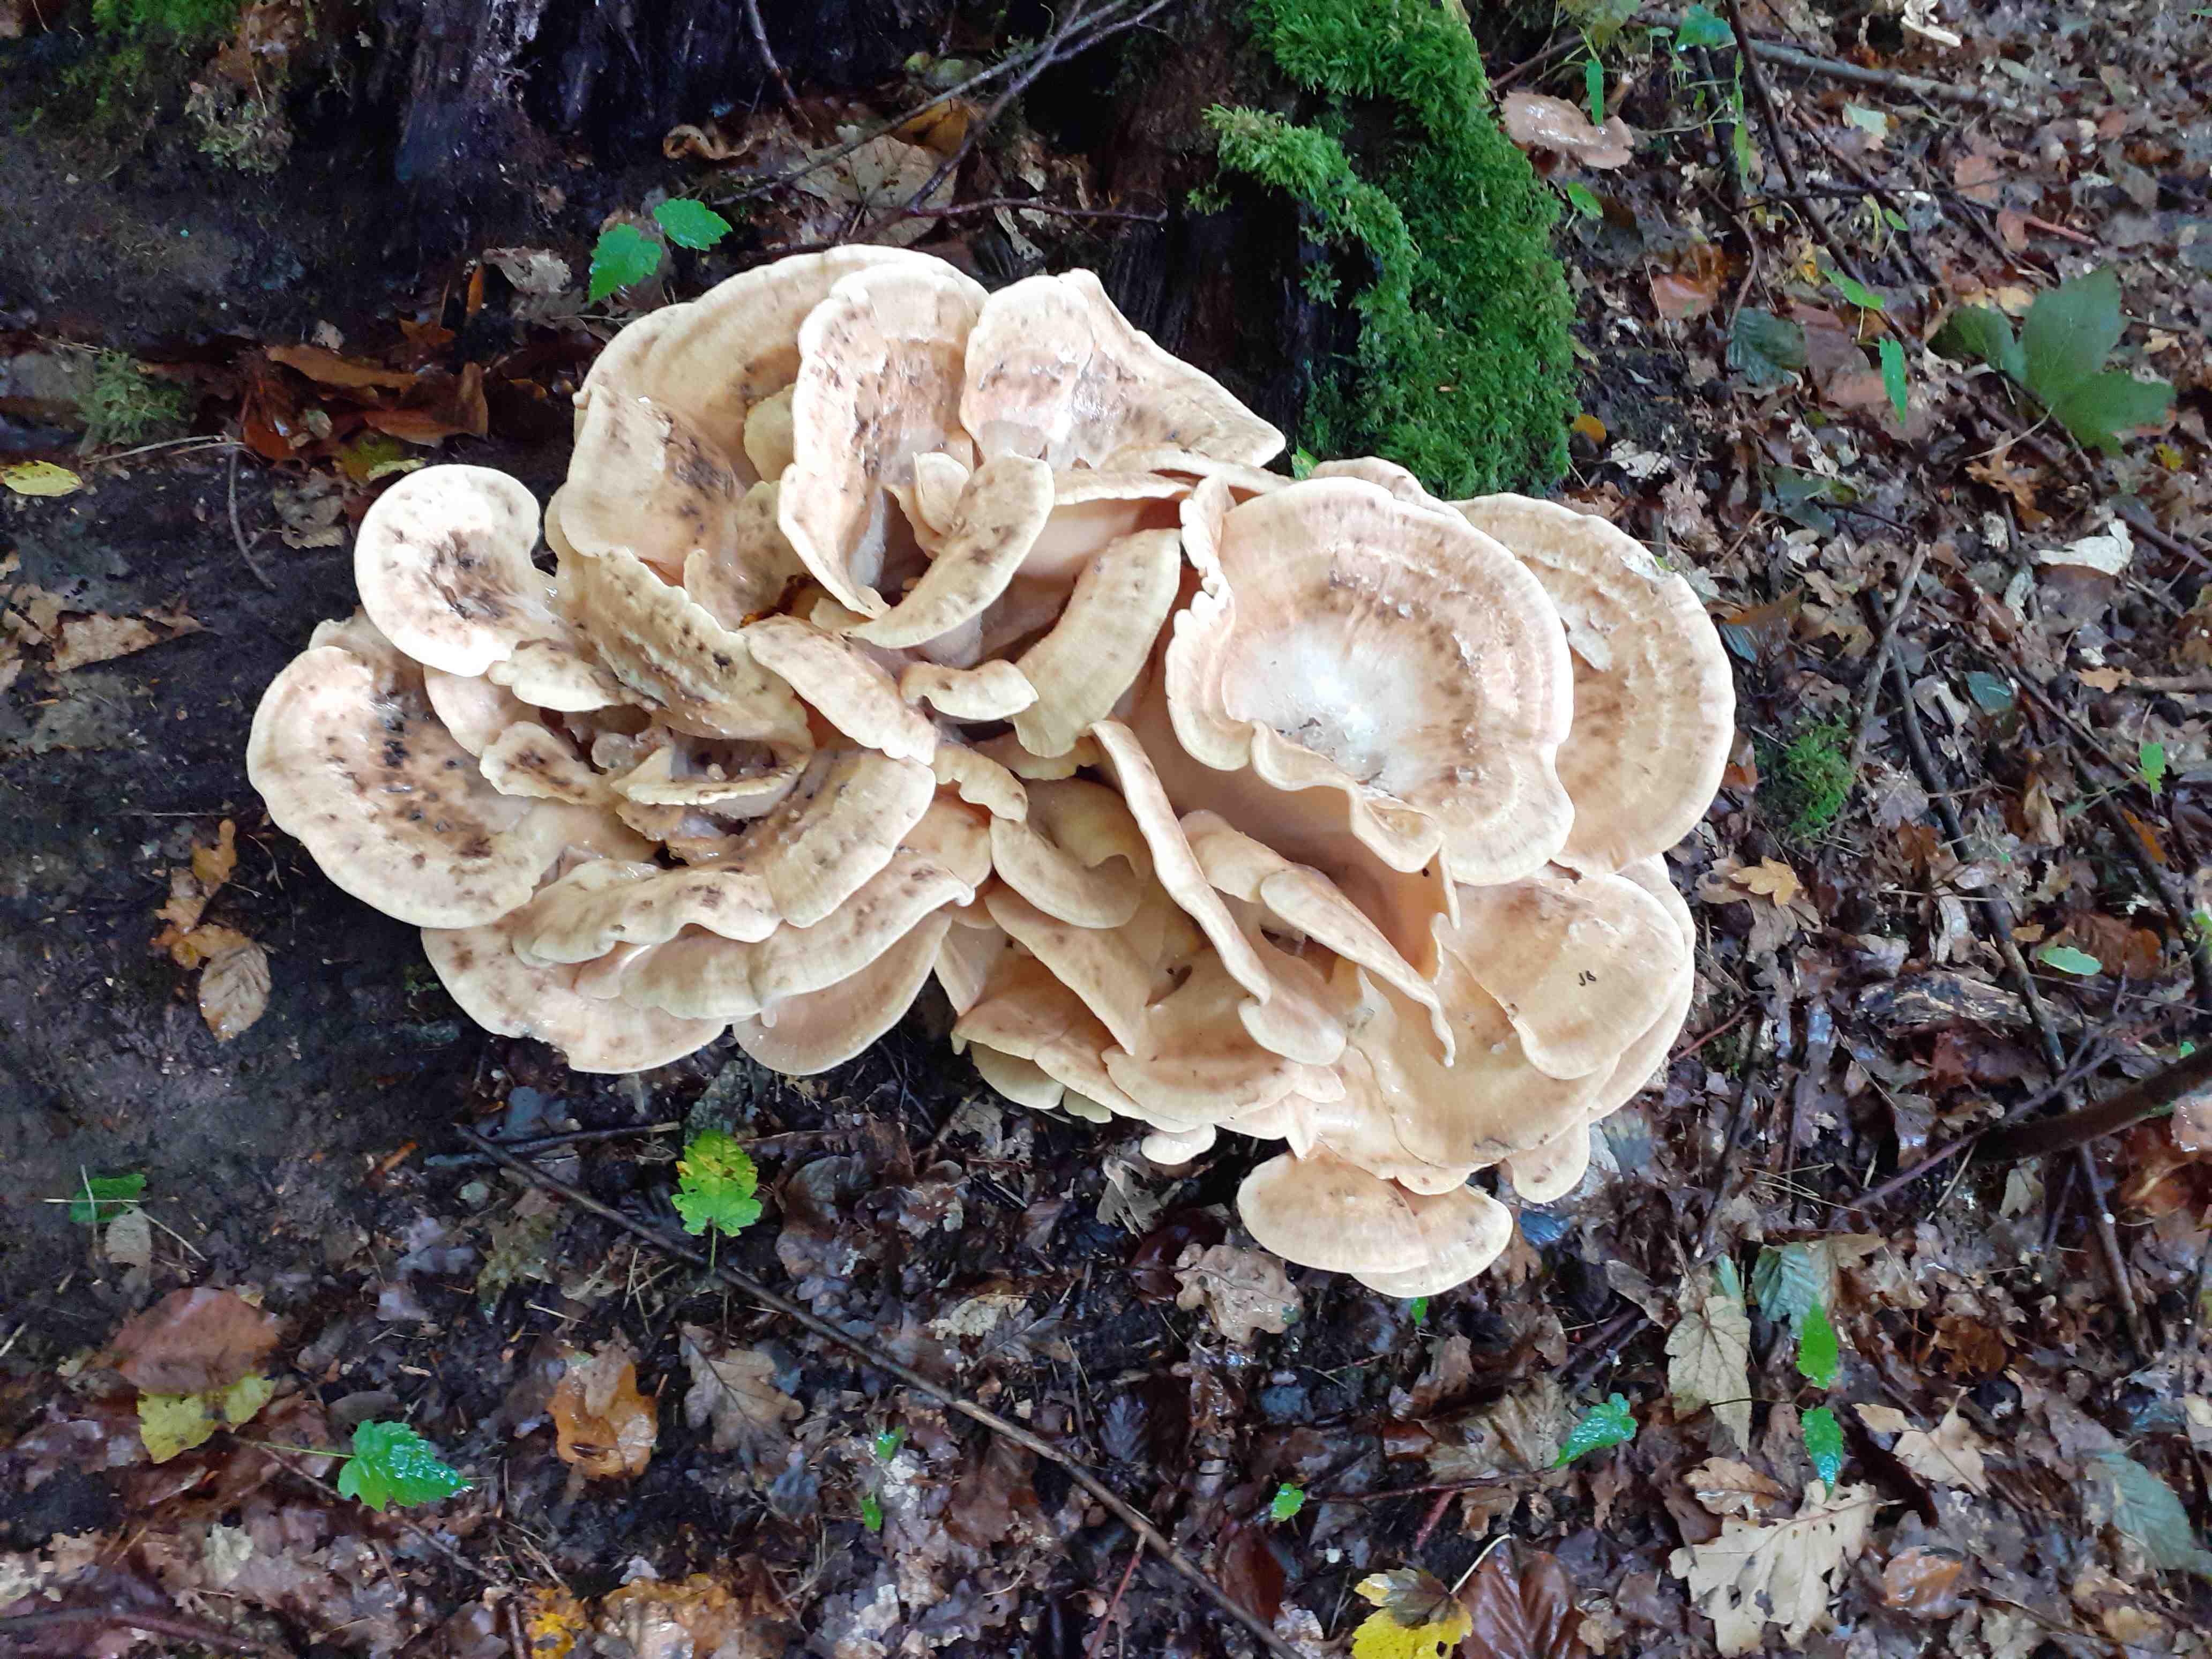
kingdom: Fungi
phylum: Basidiomycota
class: Agaricomycetes
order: Polyporales
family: Meripilaceae
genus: Meripilus
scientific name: Meripilus giganteus
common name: kæmpeporesvamp
